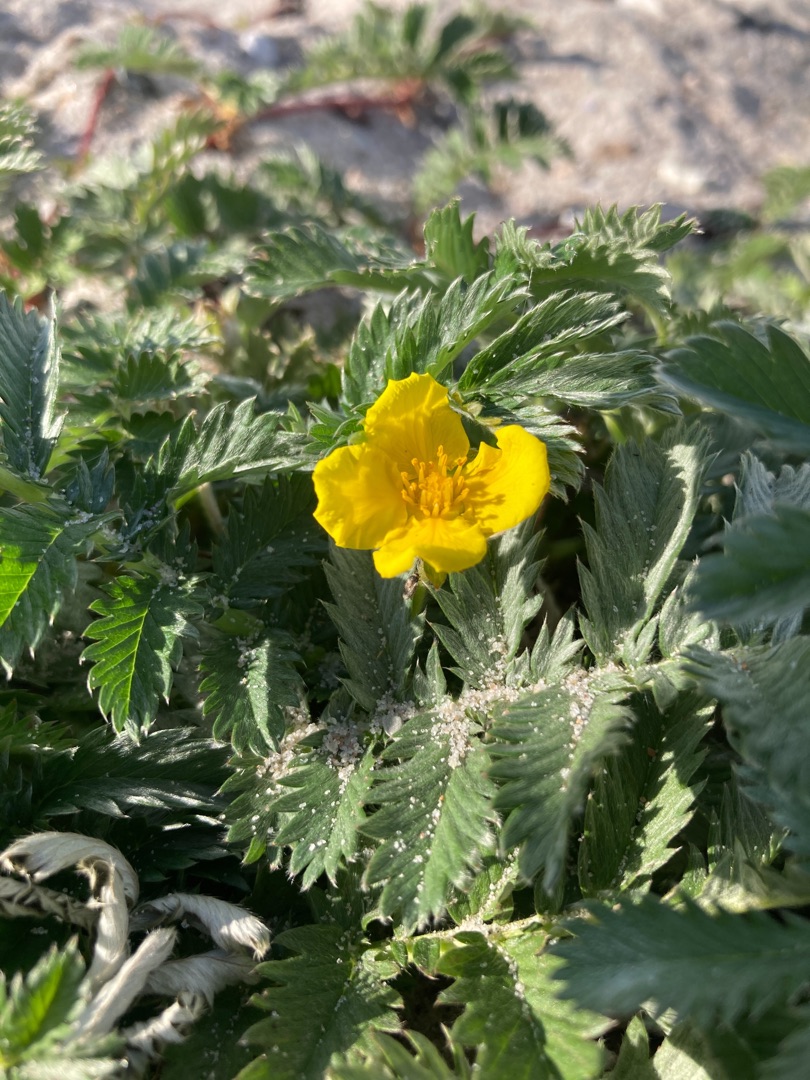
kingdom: Plantae
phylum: Tracheophyta
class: Magnoliopsida
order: Rosales
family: Rosaceae
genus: Argentina
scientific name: Argentina anserina
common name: Gåsepotentil
